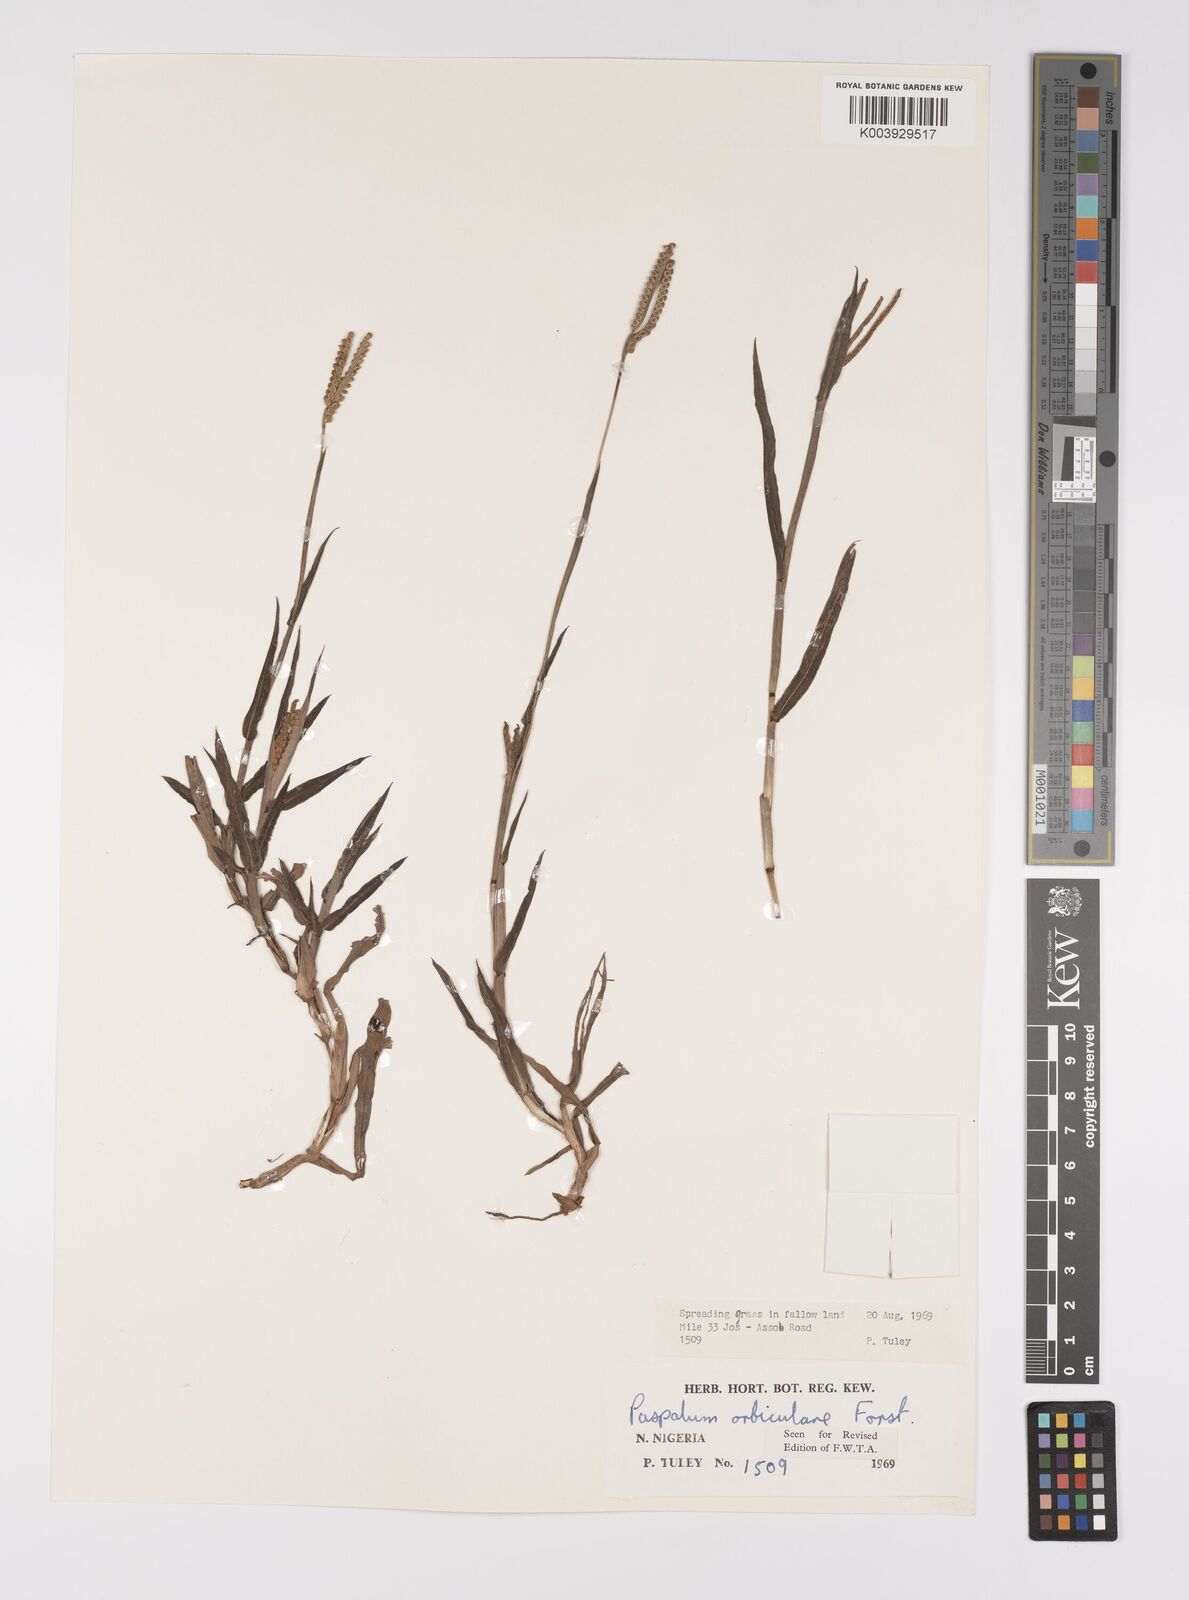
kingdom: Plantae
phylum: Tracheophyta
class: Liliopsida
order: Poales
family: Poaceae
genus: Paspalum
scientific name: Paspalum scrobiculatum
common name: Kodo millet
